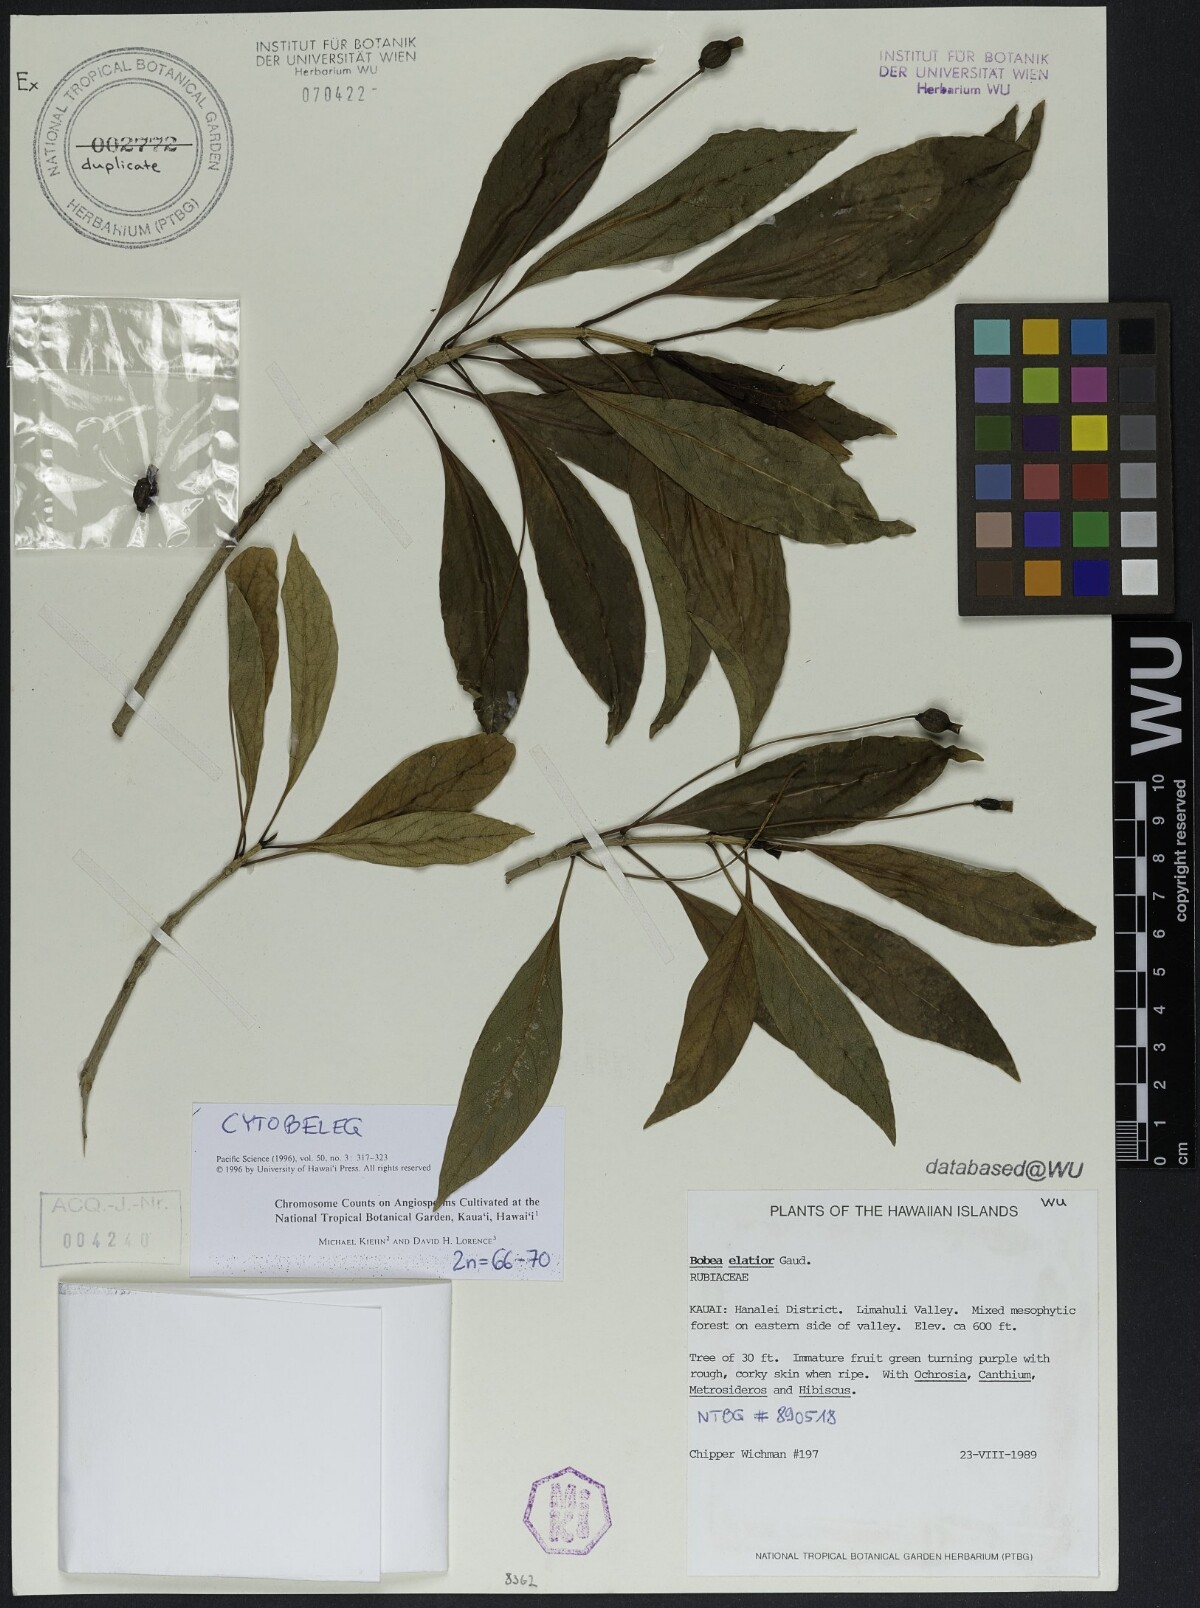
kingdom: Plantae
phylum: Tracheophyta
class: Magnoliopsida
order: Gentianales
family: Rubiaceae
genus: Bobea
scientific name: Bobea gaudichaudii
